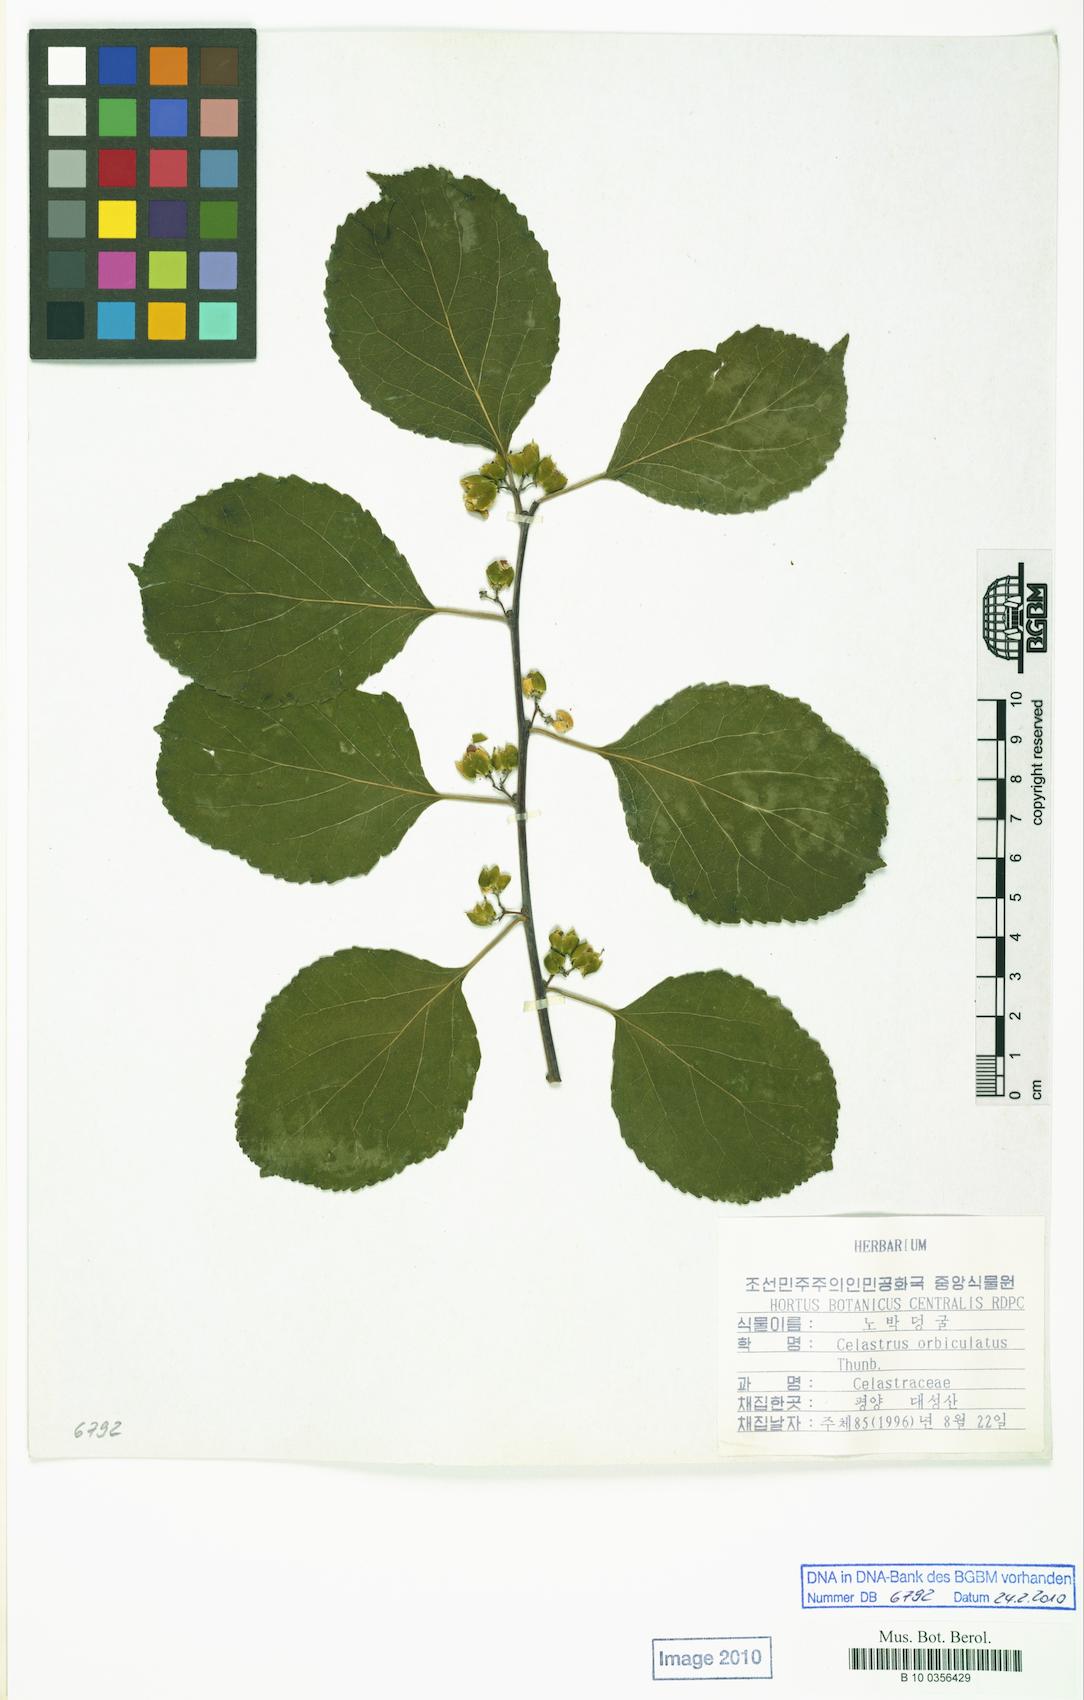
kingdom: Plantae
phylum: Tracheophyta
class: Magnoliopsida
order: Celastrales
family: Celastraceae
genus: Celastrus
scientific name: Celastrus orbiculatus
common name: Oriental bittersweet
